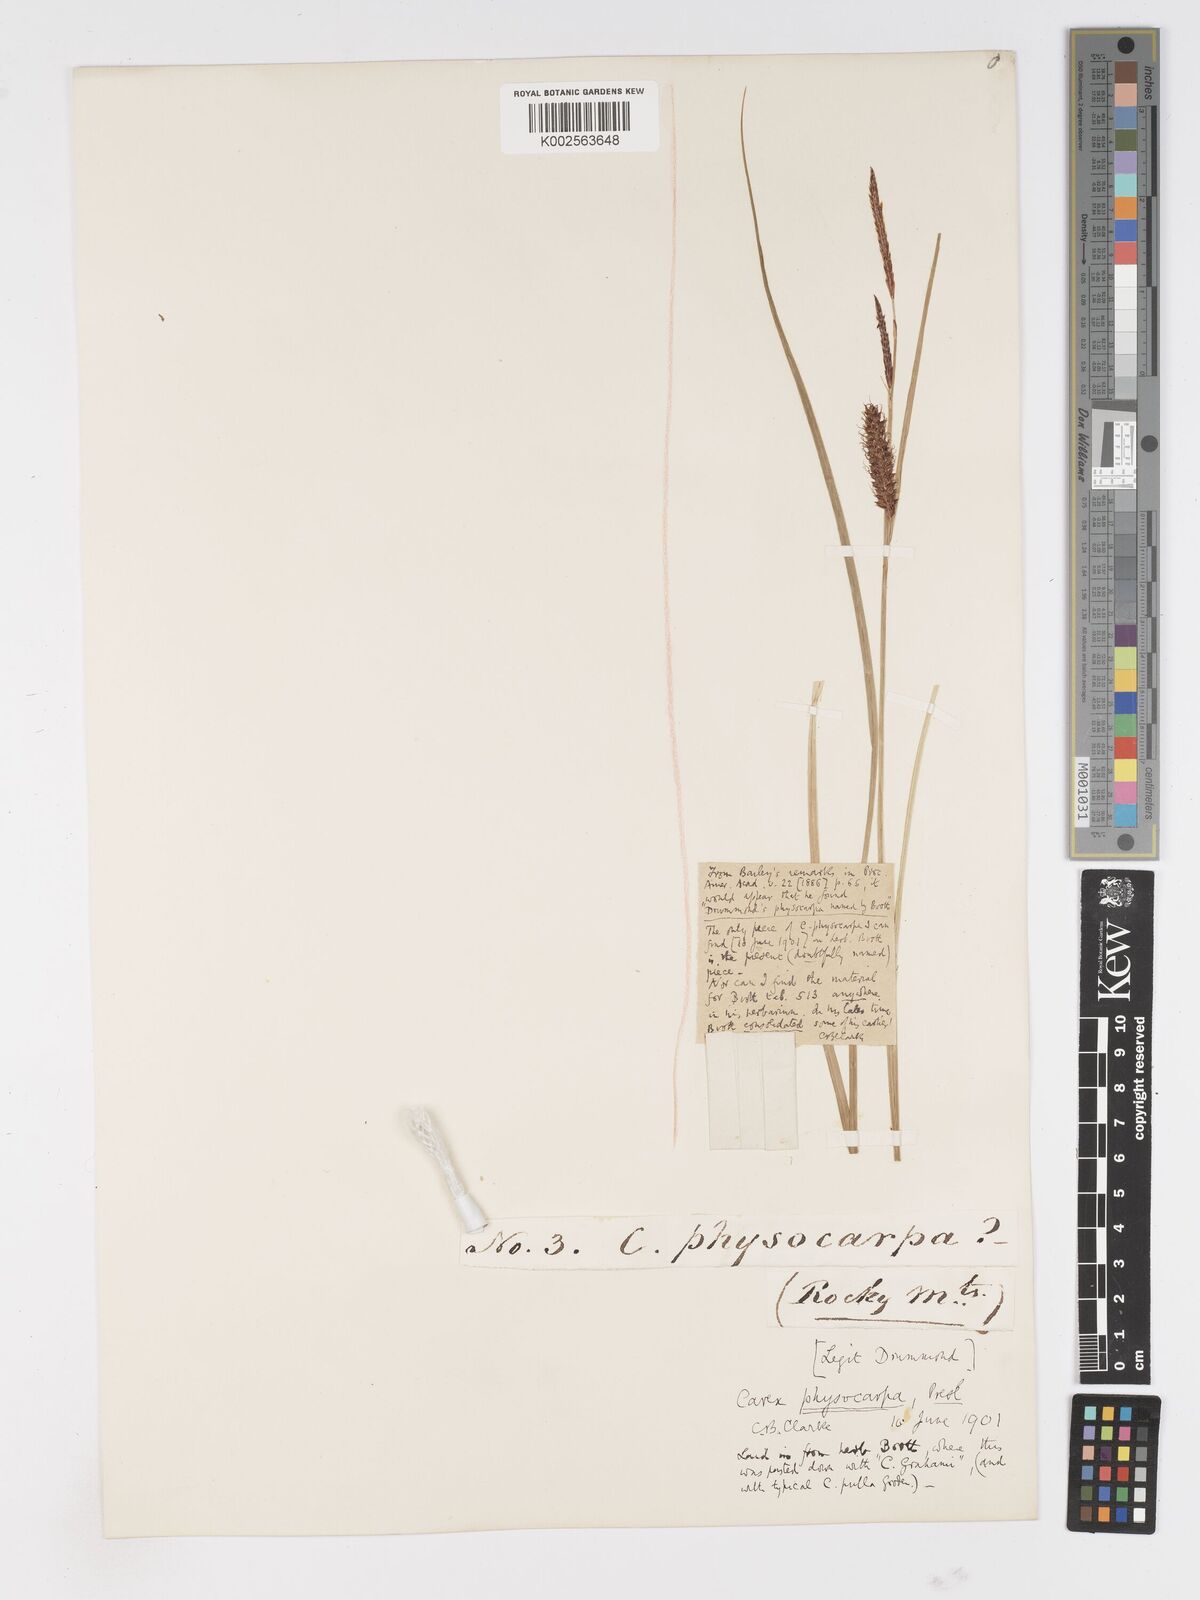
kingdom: Plantae
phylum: Tracheophyta
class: Liliopsida
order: Poales
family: Cyperaceae
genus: Carex
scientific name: Carex saxatilis
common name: Russet sedge
